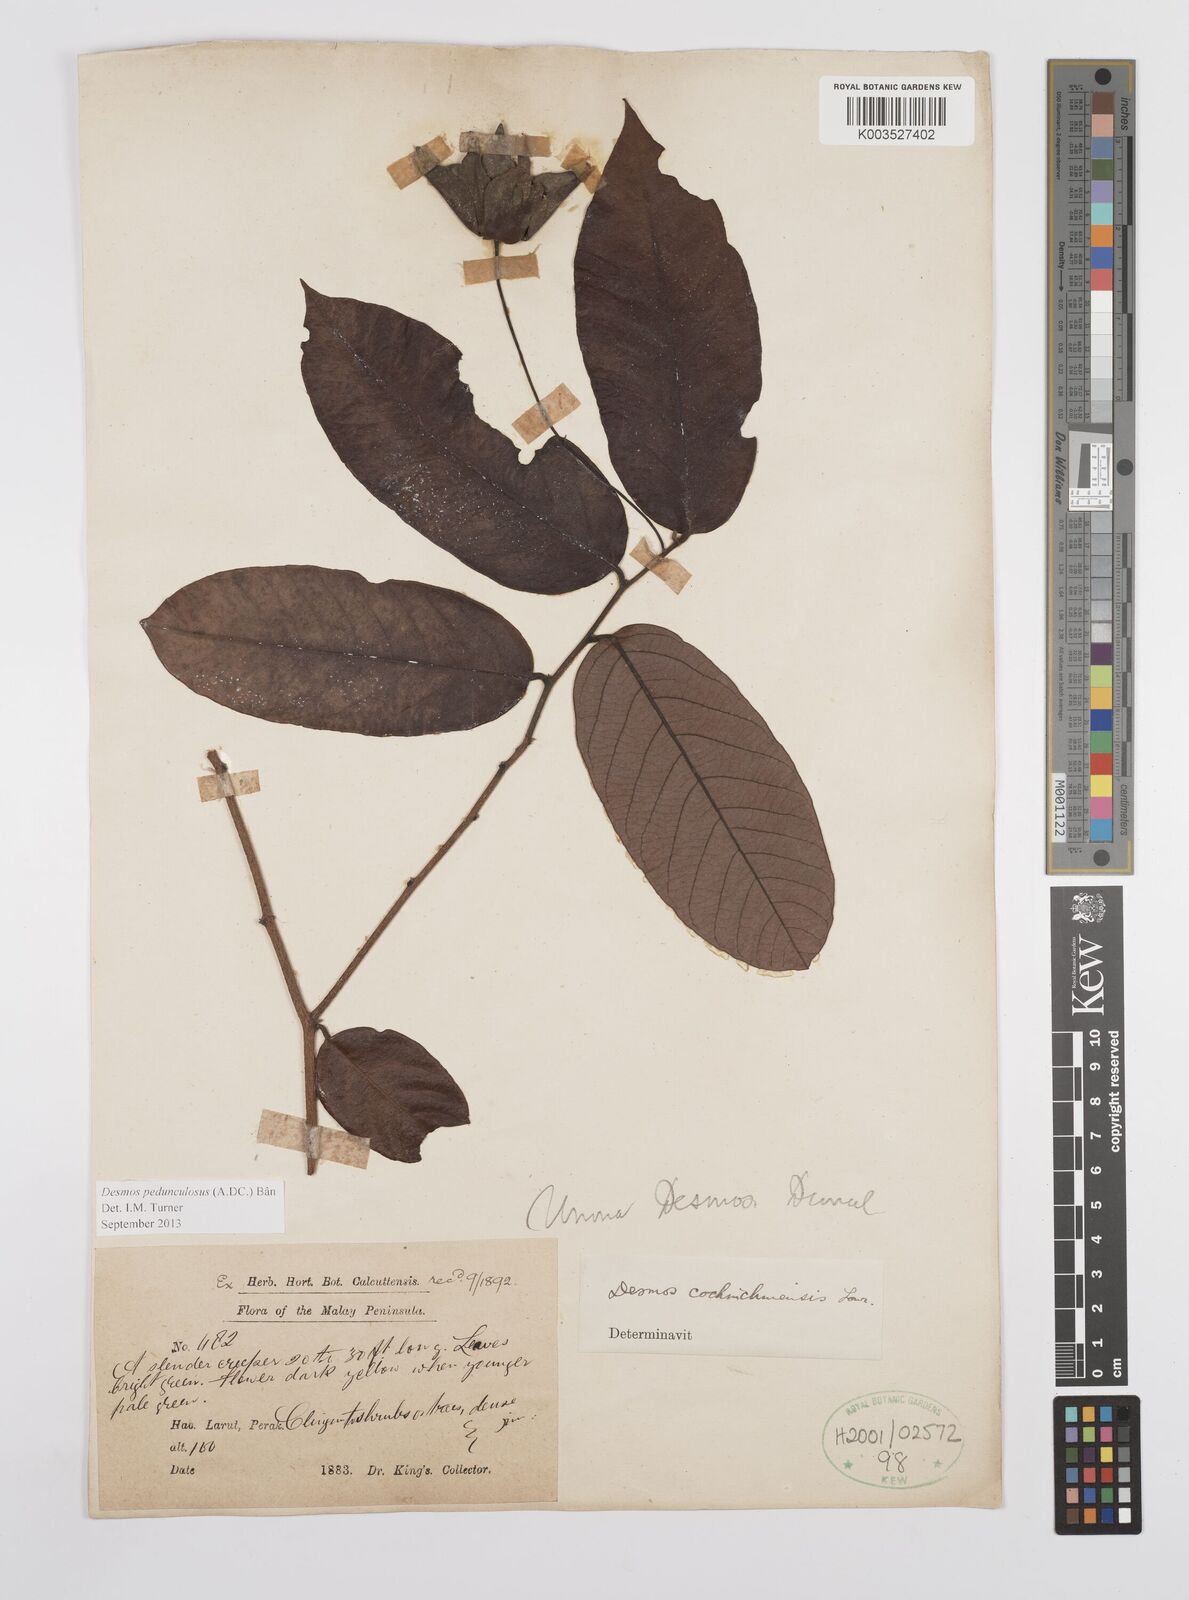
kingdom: Plantae
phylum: Tracheophyta
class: Magnoliopsida
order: Magnoliales
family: Annonaceae
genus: Desmos
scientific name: Desmos cochinchinensis
